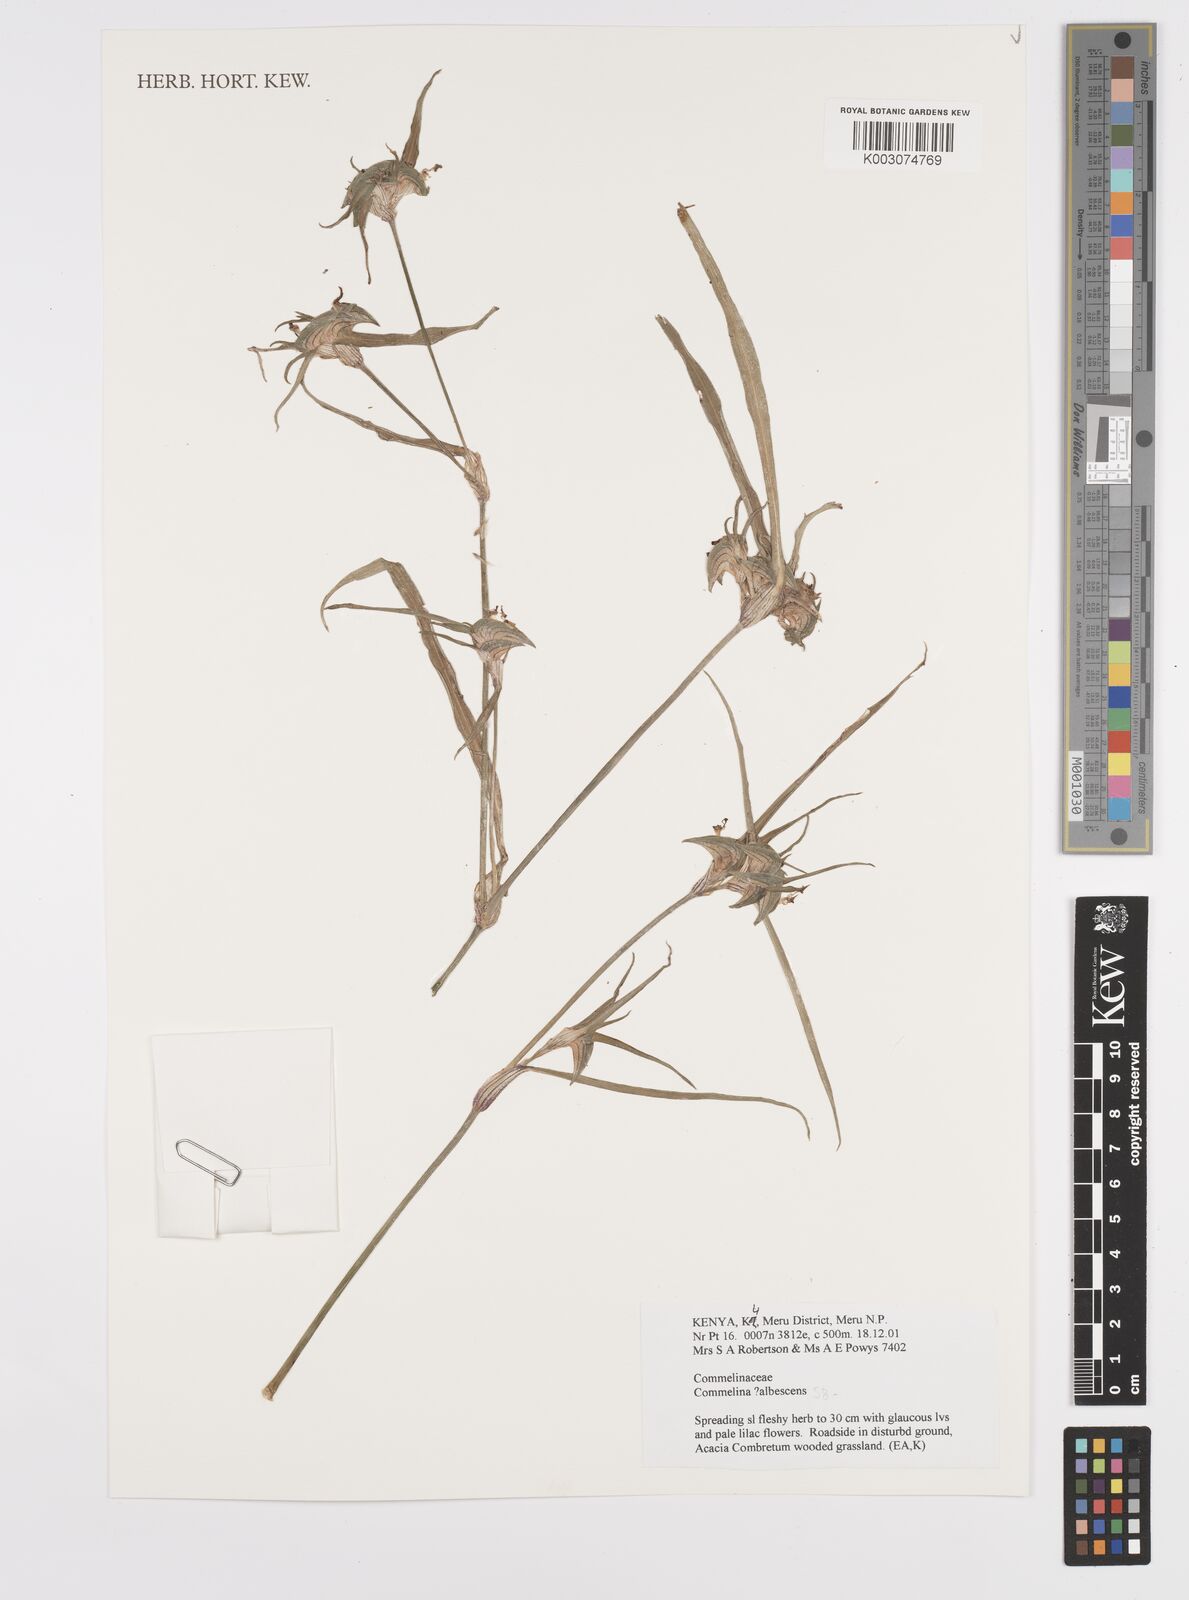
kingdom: Plantae
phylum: Tracheophyta
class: Liliopsida
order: Commelinales
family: Commelinaceae
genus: Commelina
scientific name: Commelina albescens
